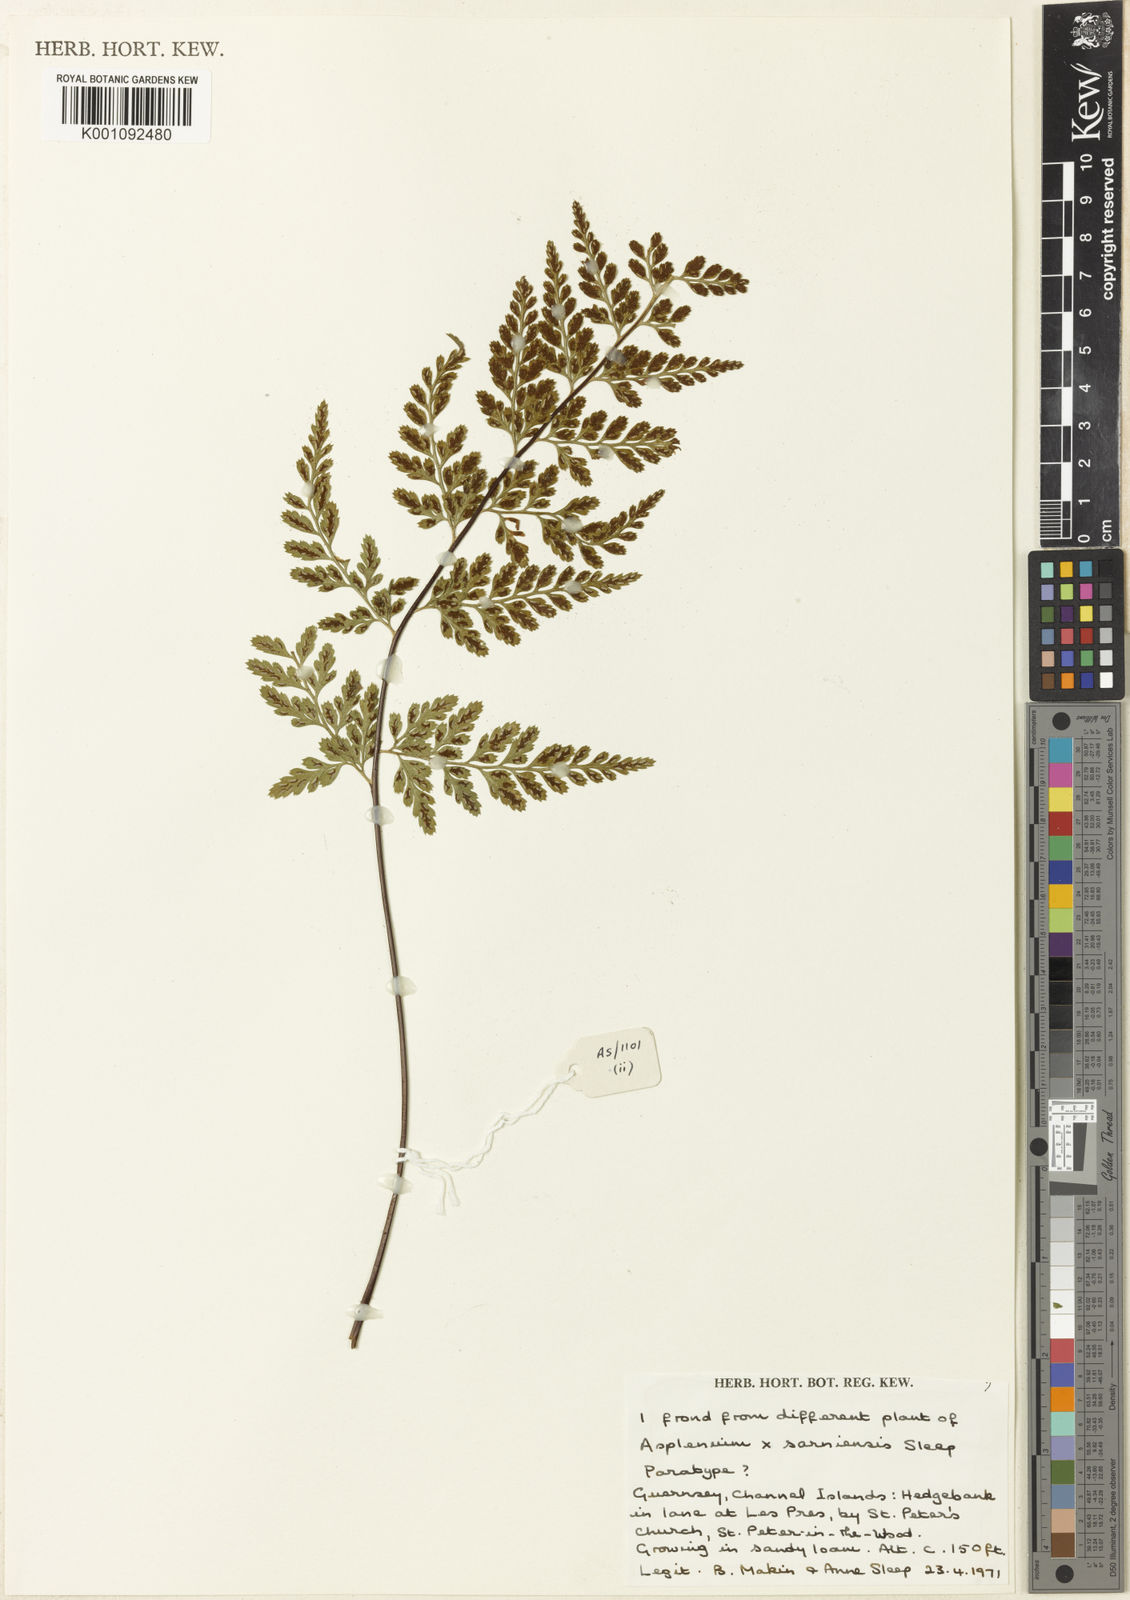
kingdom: Plantae
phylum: Tracheophyta
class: Polypodiopsida
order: Polypodiales
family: Aspleniaceae
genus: Asplenium
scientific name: Asplenium obovatum
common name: Lanceolate spleenwort
